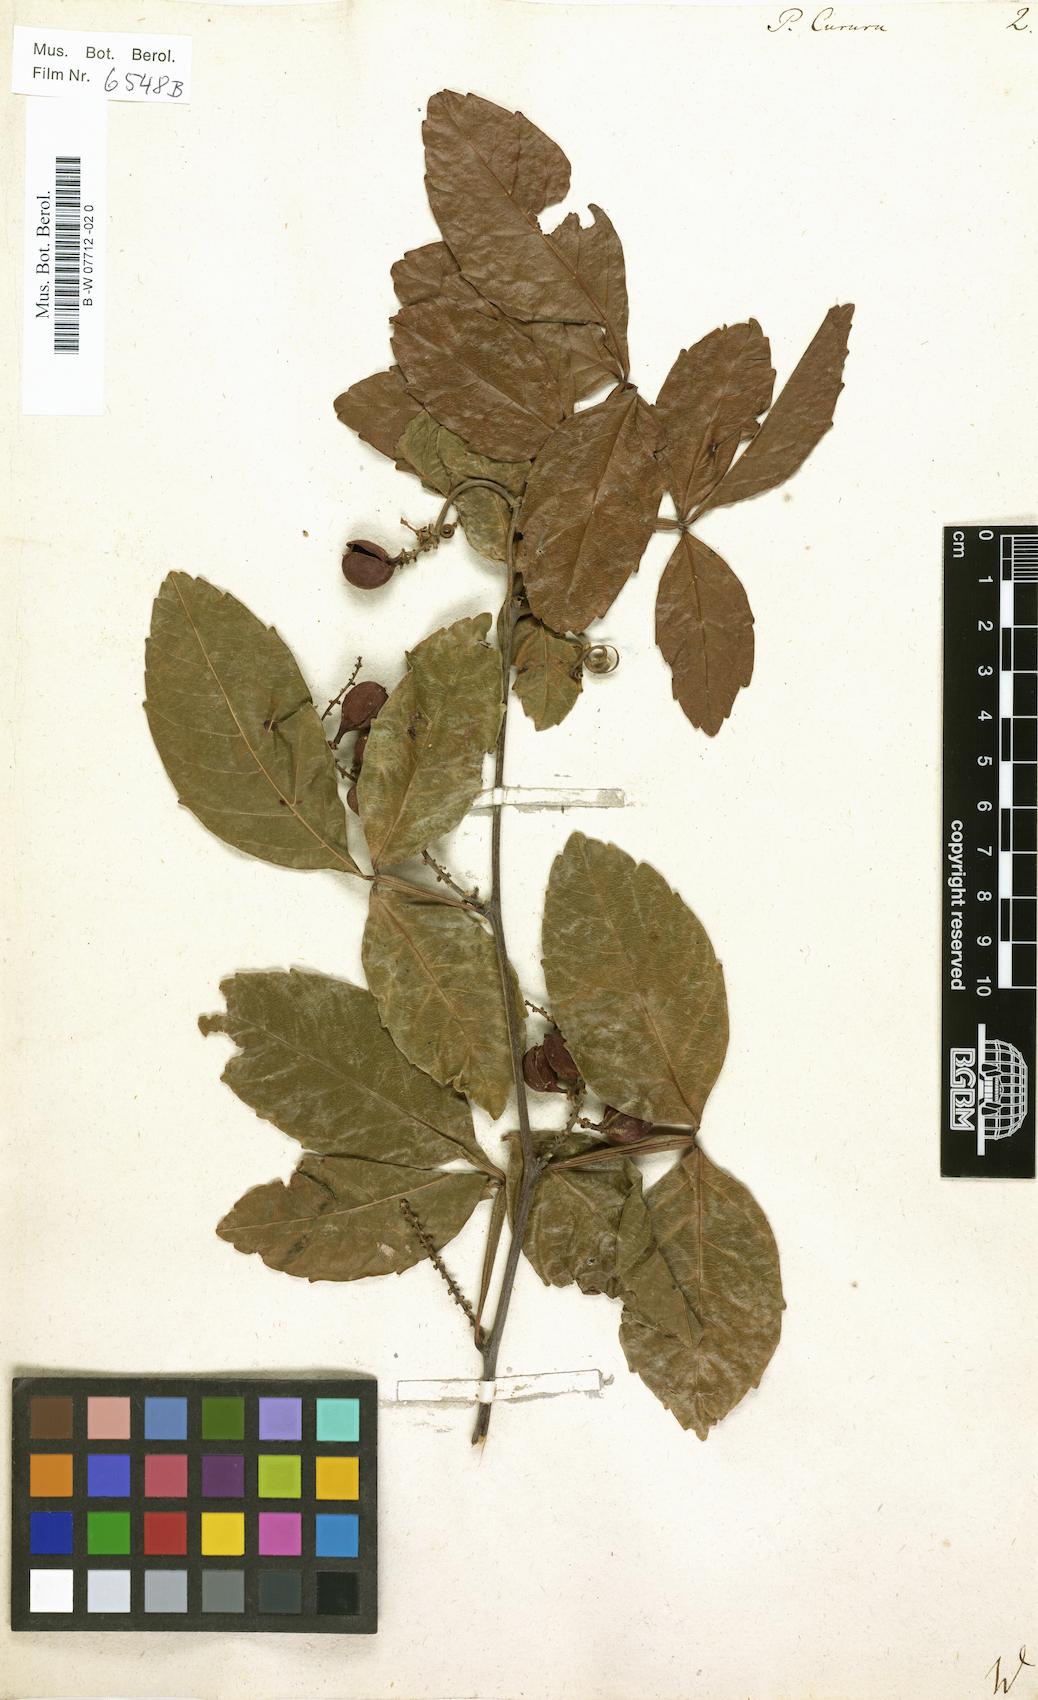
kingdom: Plantae
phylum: Tracheophyta
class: Magnoliopsida
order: Sapindales
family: Sapindaceae
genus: Paullinia
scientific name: Paullinia cururu
